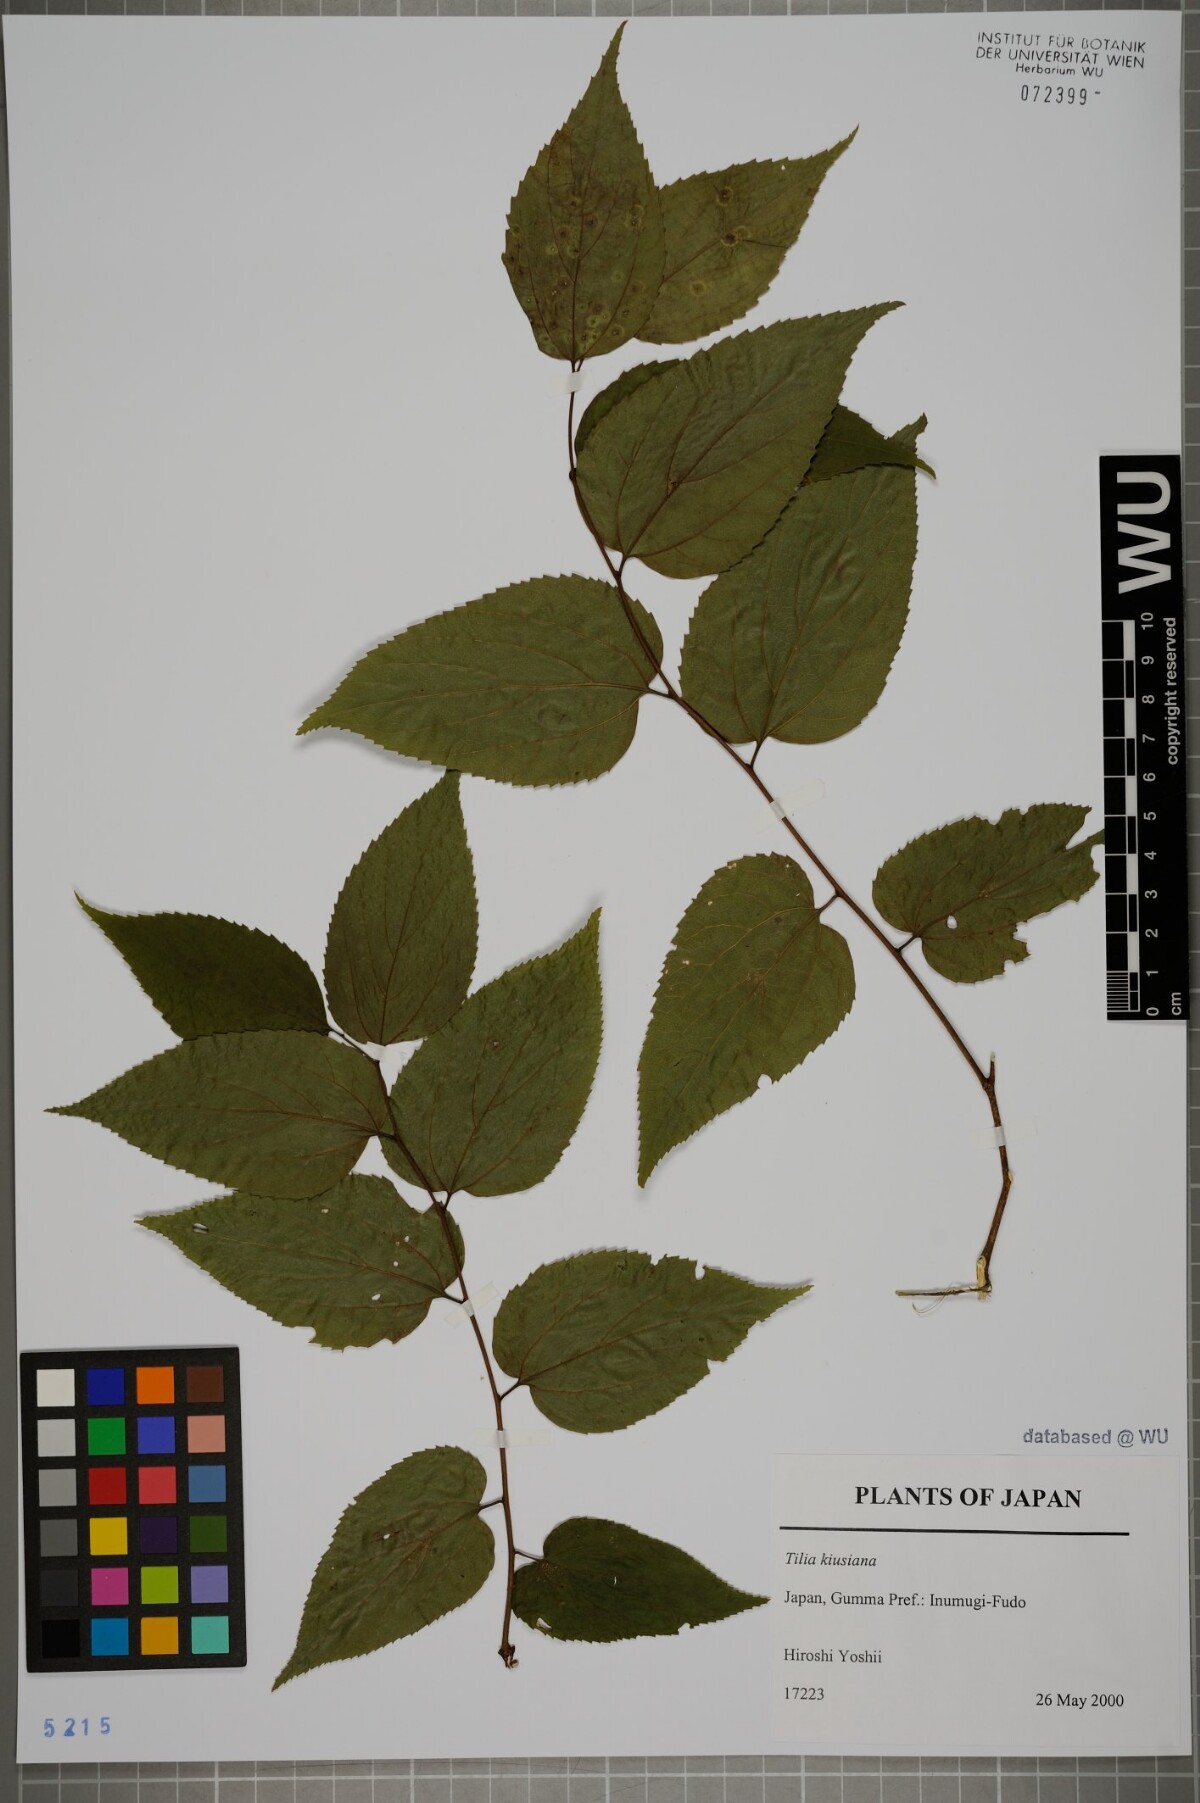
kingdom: Plantae
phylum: Tracheophyta
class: Magnoliopsida
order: Malvales
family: Malvaceae
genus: Tilia
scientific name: Tilia kiusiana
